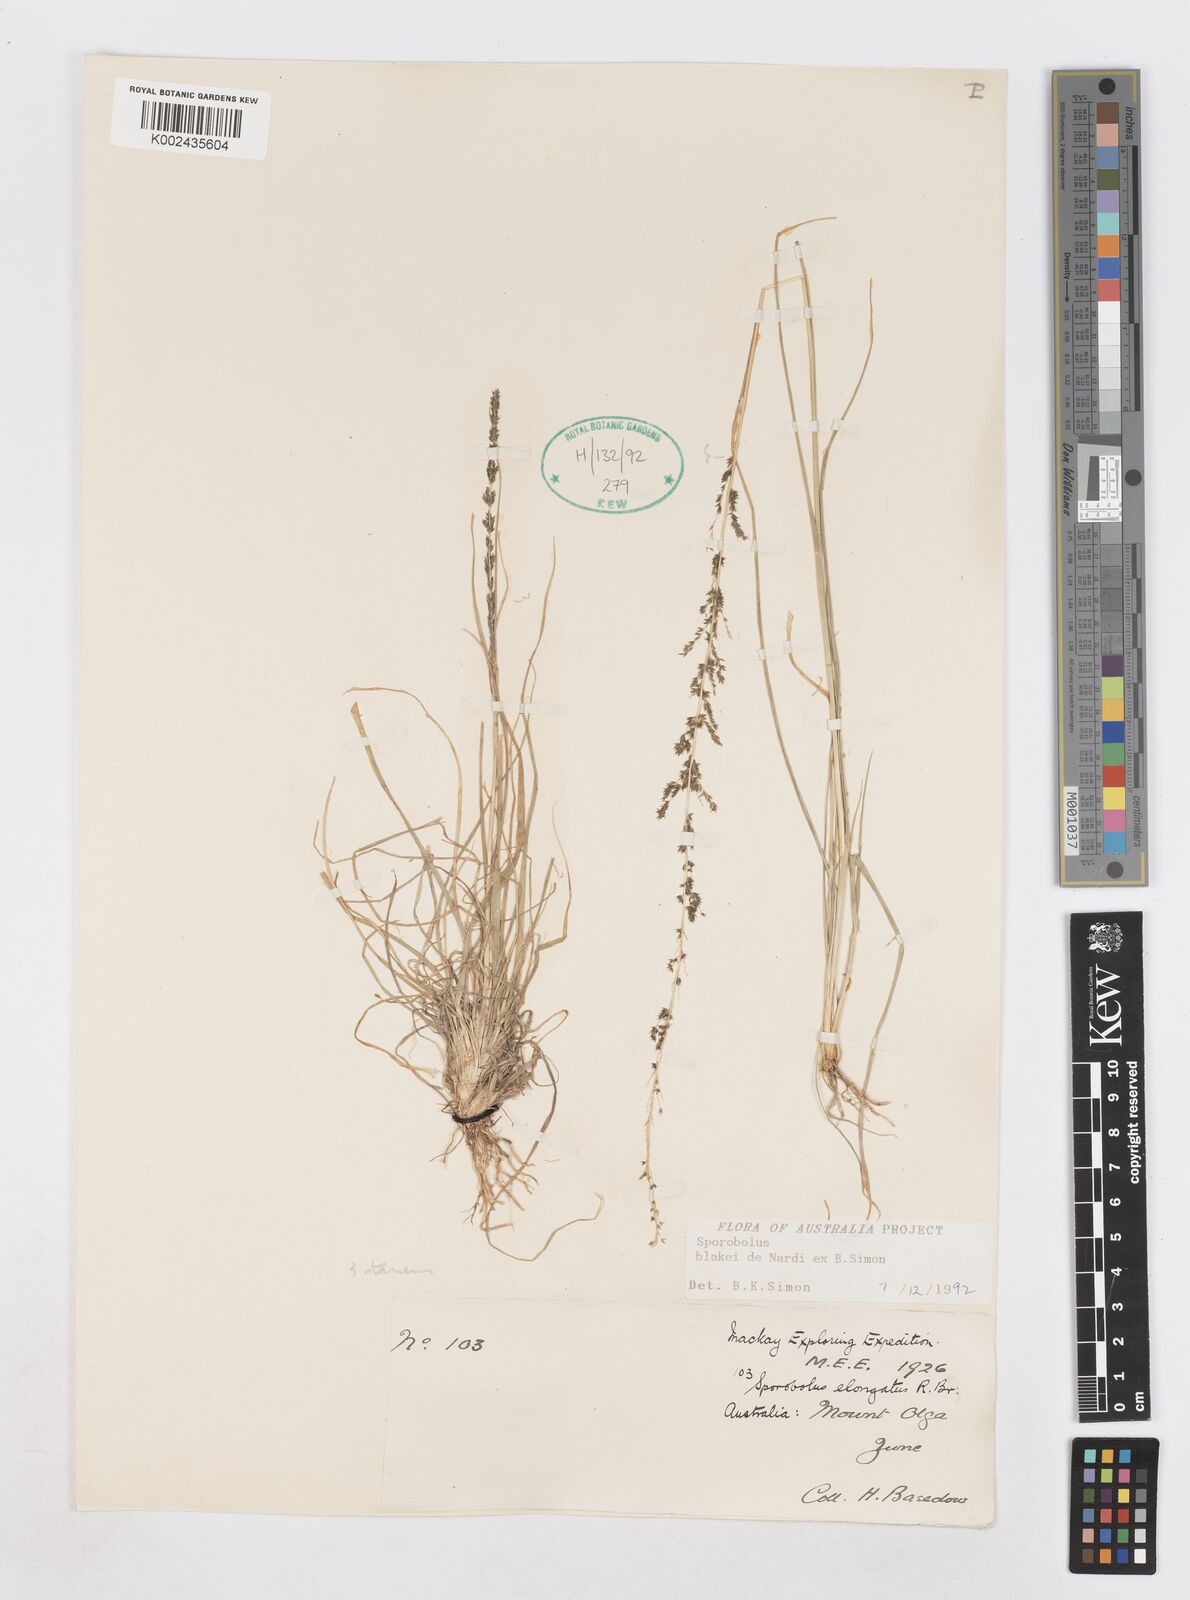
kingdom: Plantae
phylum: Tracheophyta
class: Liliopsida
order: Poales
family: Poaceae
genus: Sporobolus
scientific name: Sporobolus blakei
